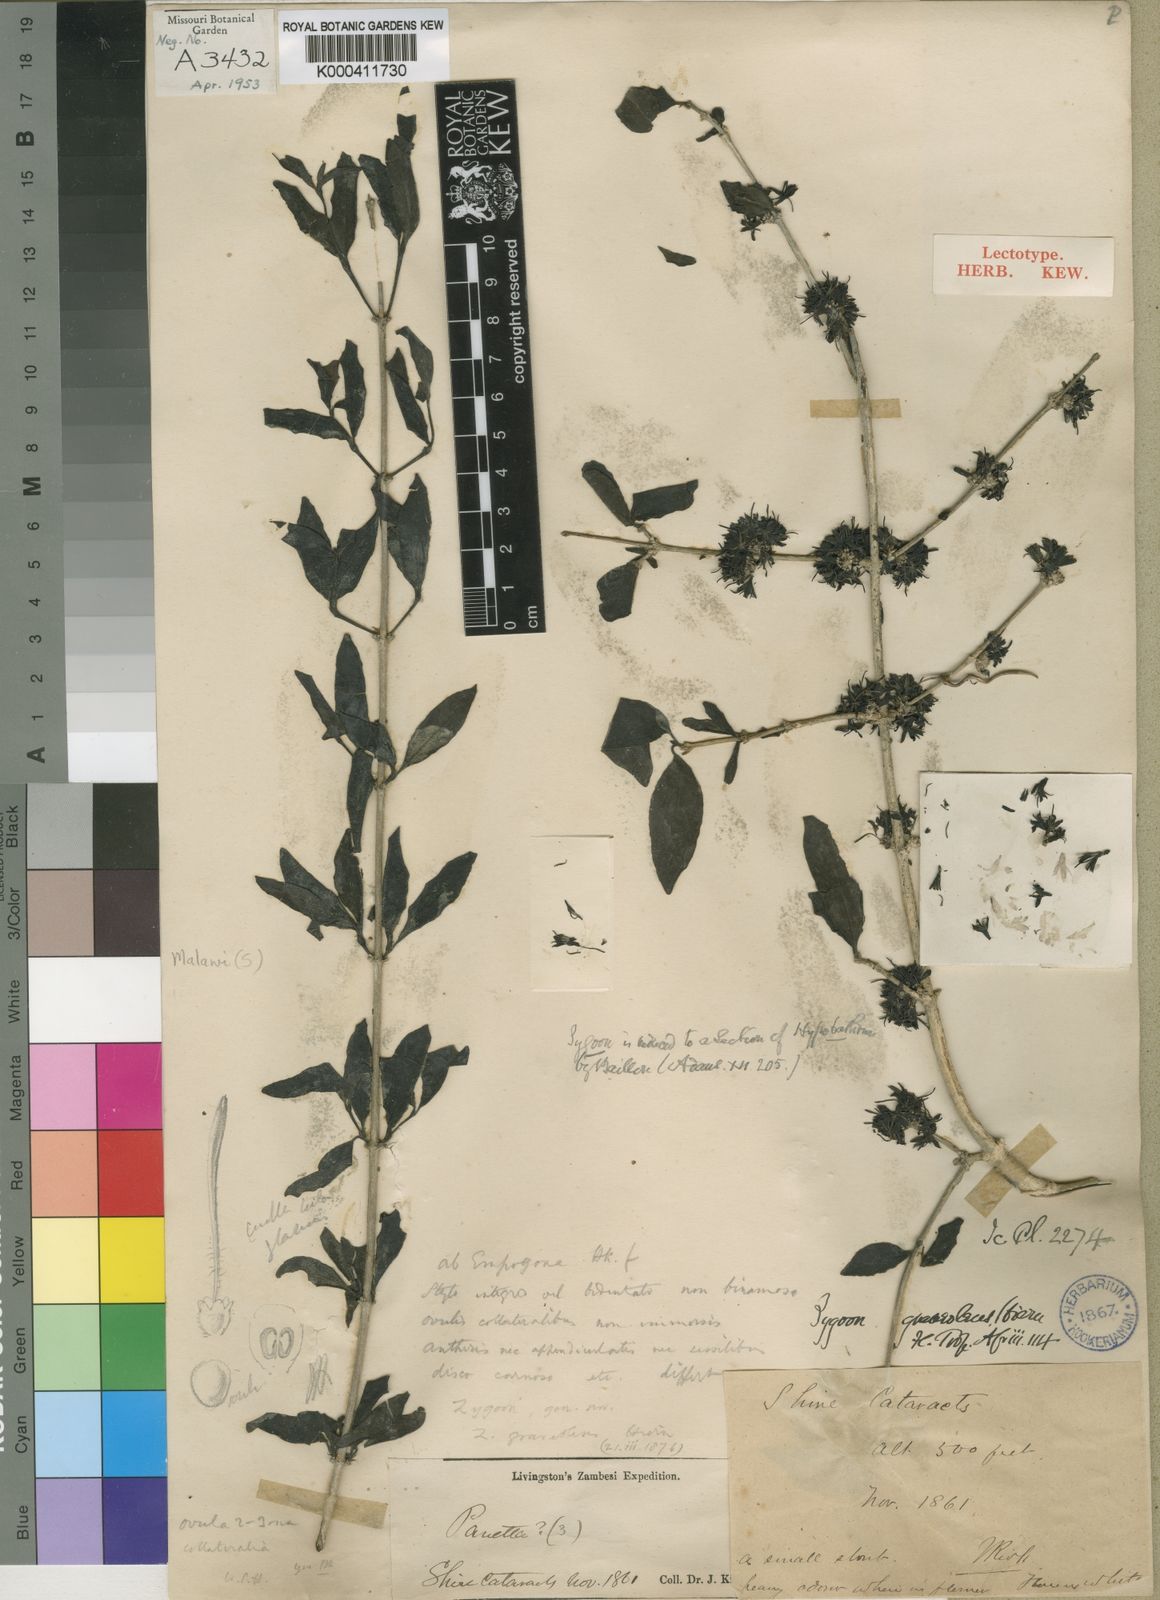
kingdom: Plantae
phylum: Tracheophyta
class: Magnoliopsida
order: Gentianales
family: Rubiaceae
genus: Coptosperma
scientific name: Coptosperma graveolens
